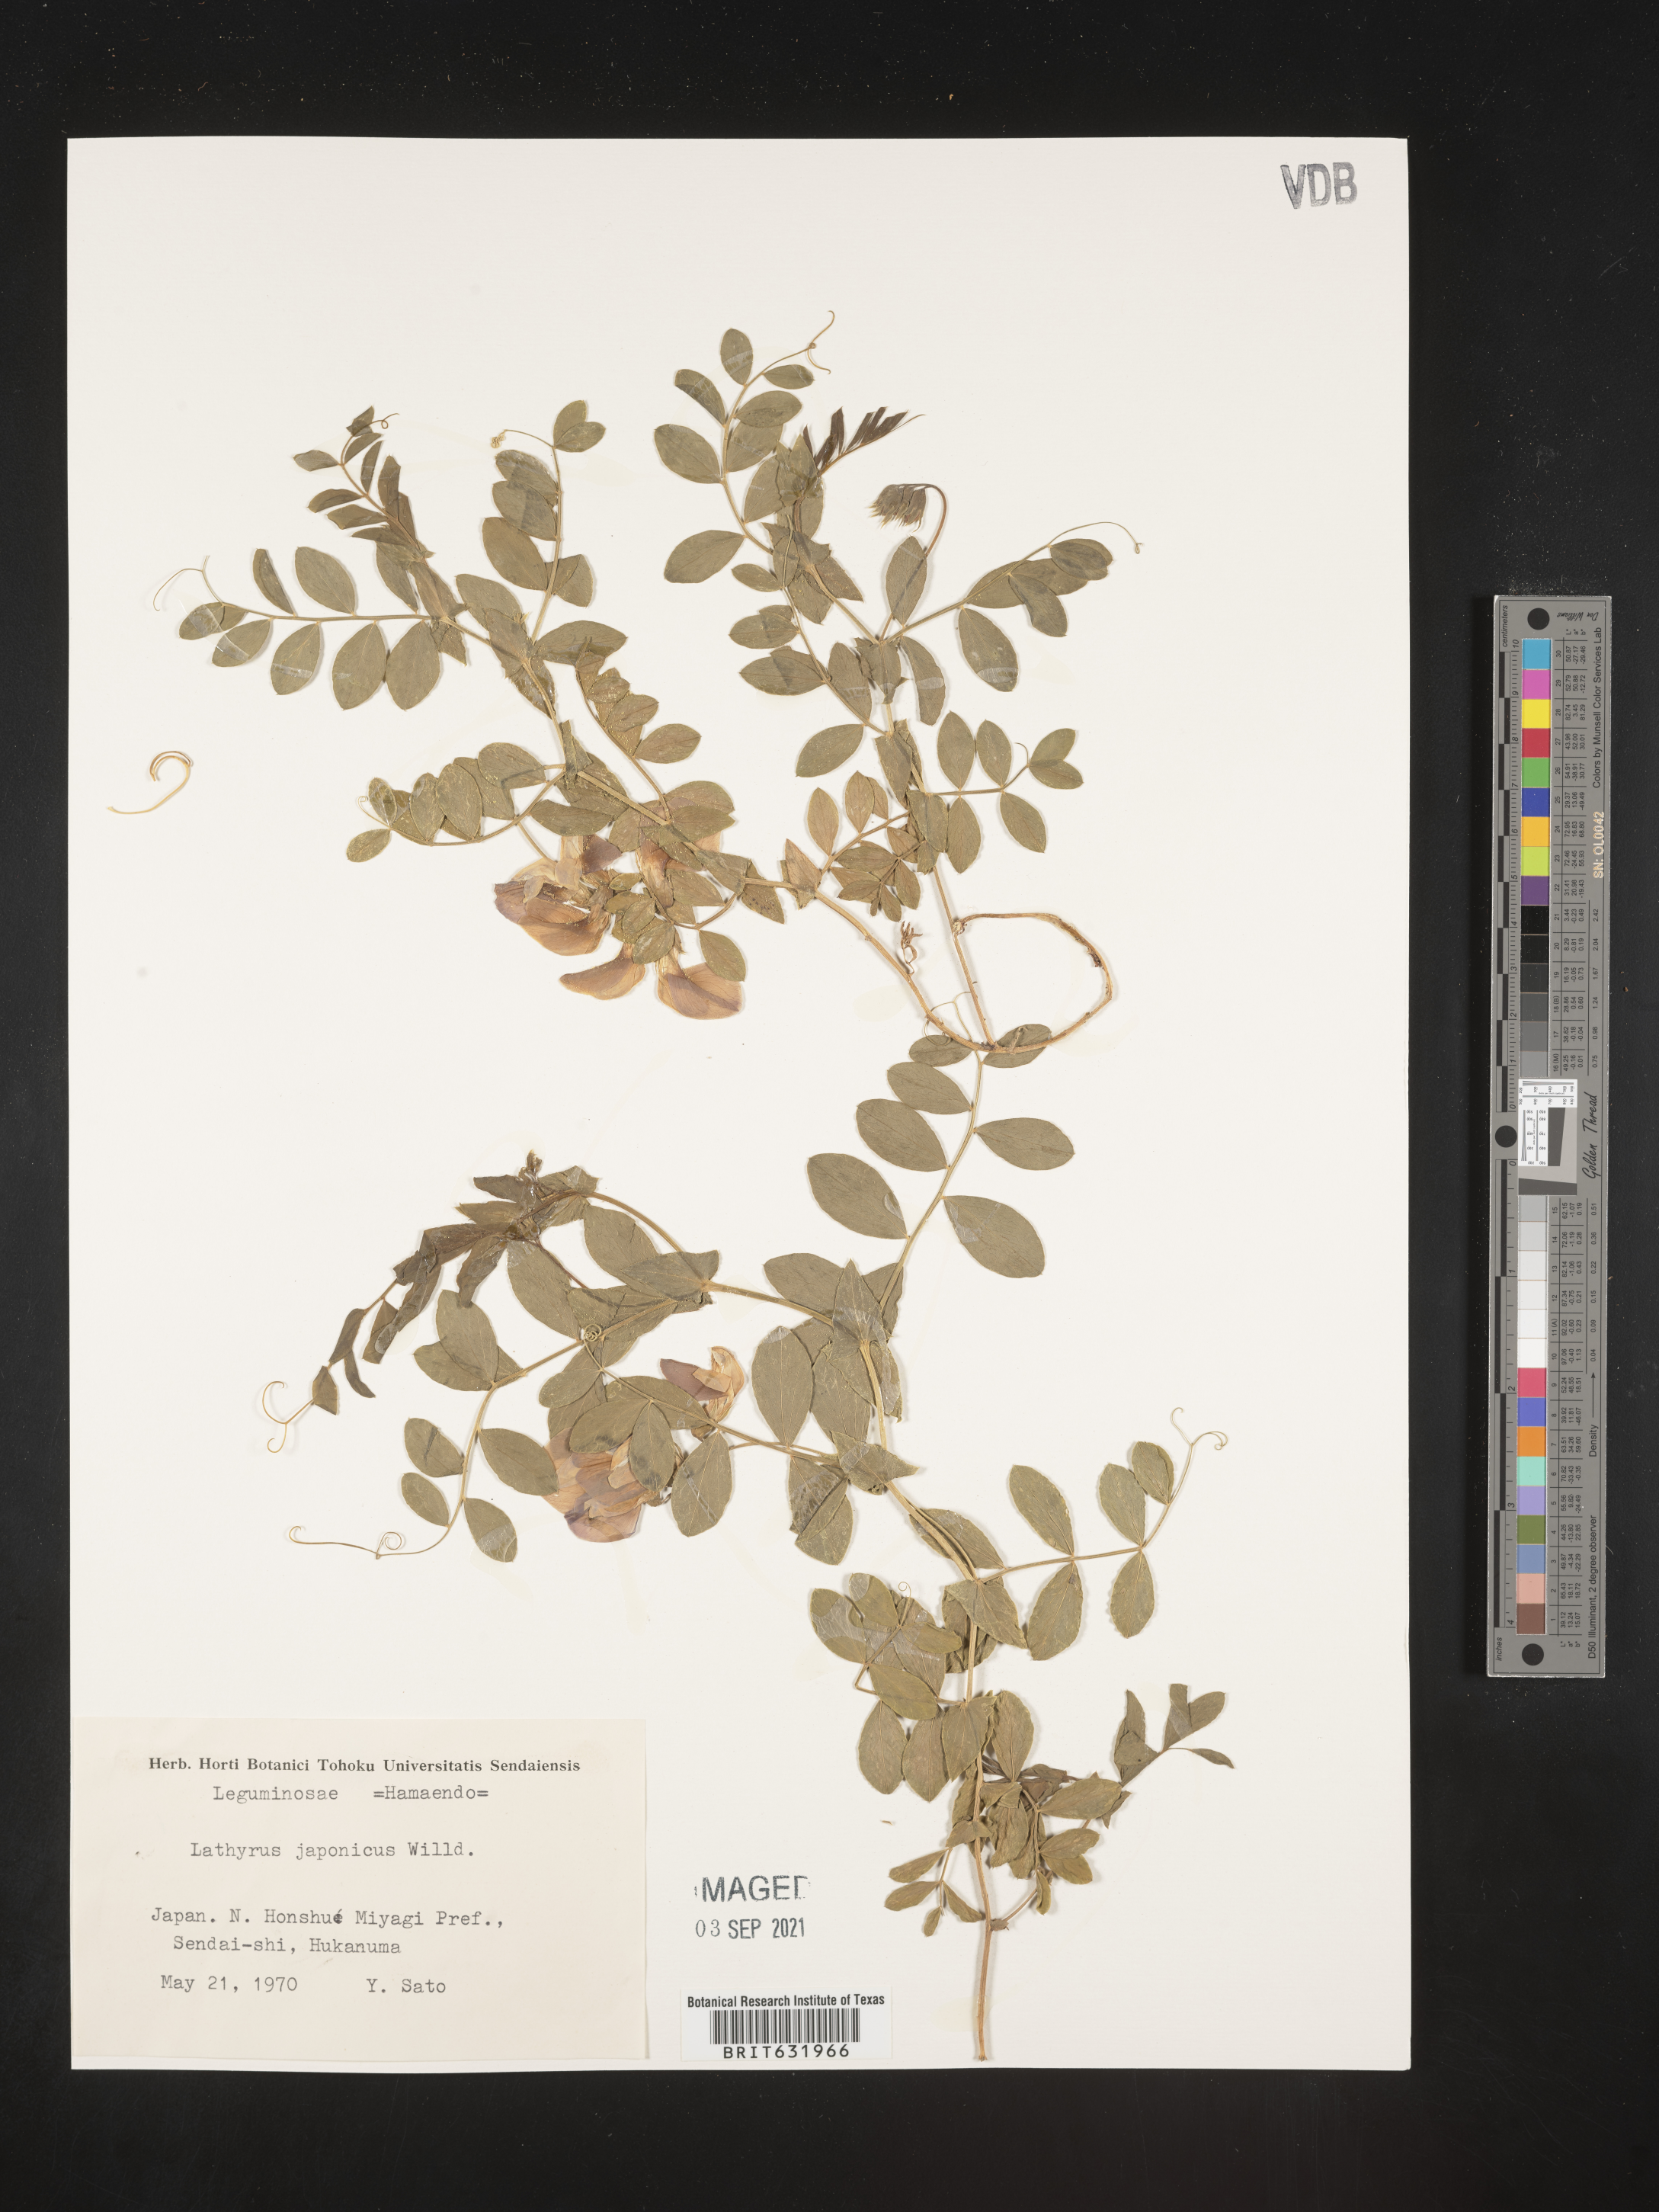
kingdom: Plantae
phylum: Tracheophyta
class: Magnoliopsida
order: Fabales
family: Fabaceae
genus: Lathyrus
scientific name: Lathyrus
